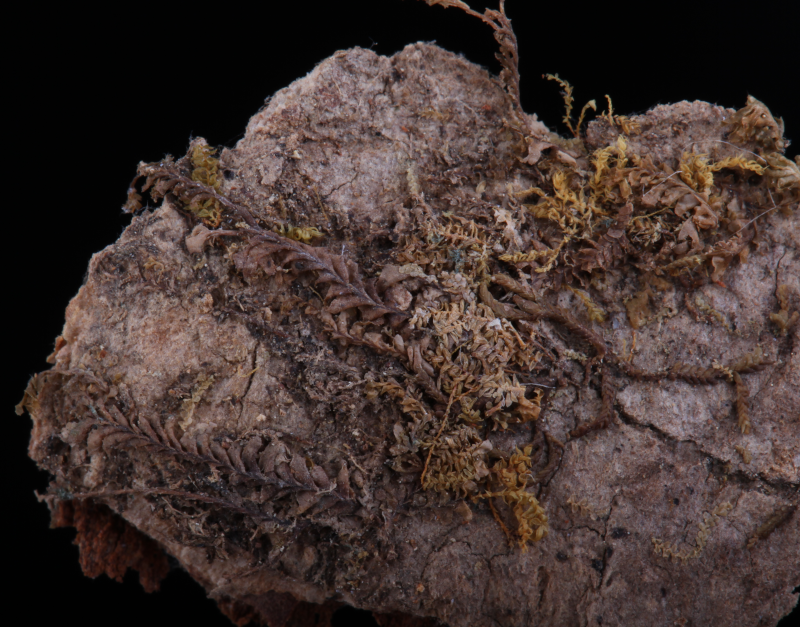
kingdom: Plantae
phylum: Marchantiophyta
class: Jungermanniopsida
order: Porellales
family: Lejeuneaceae
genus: Thysananthus
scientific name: Thysananthus humilis
